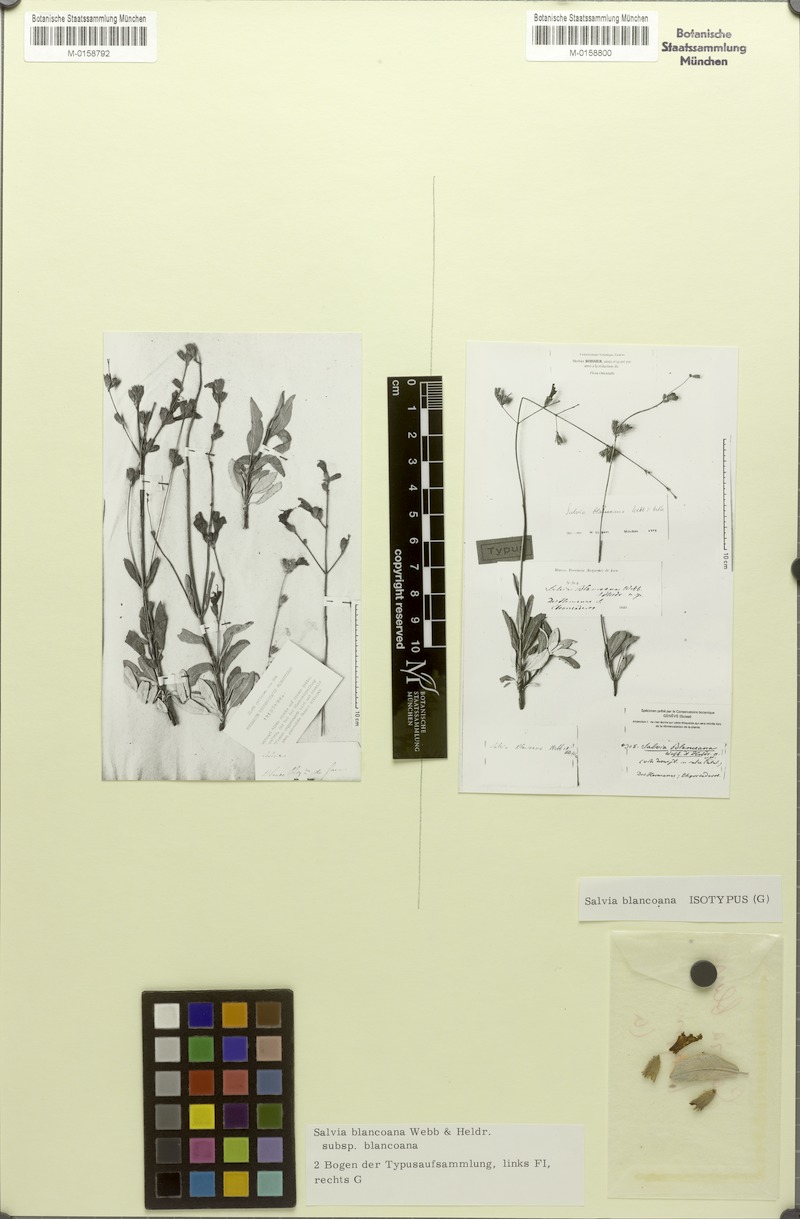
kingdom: Plantae
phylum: Tracheophyta
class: Magnoliopsida
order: Lamiales
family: Lamiaceae
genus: Salvia
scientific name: Salvia blancoana
